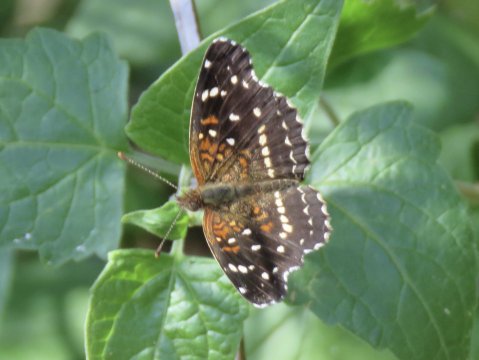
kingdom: Animalia
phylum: Arthropoda
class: Insecta
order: Lepidoptera
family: Nymphalidae
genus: Anthanassa
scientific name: Anthanassa texana
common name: Texan Crescent
